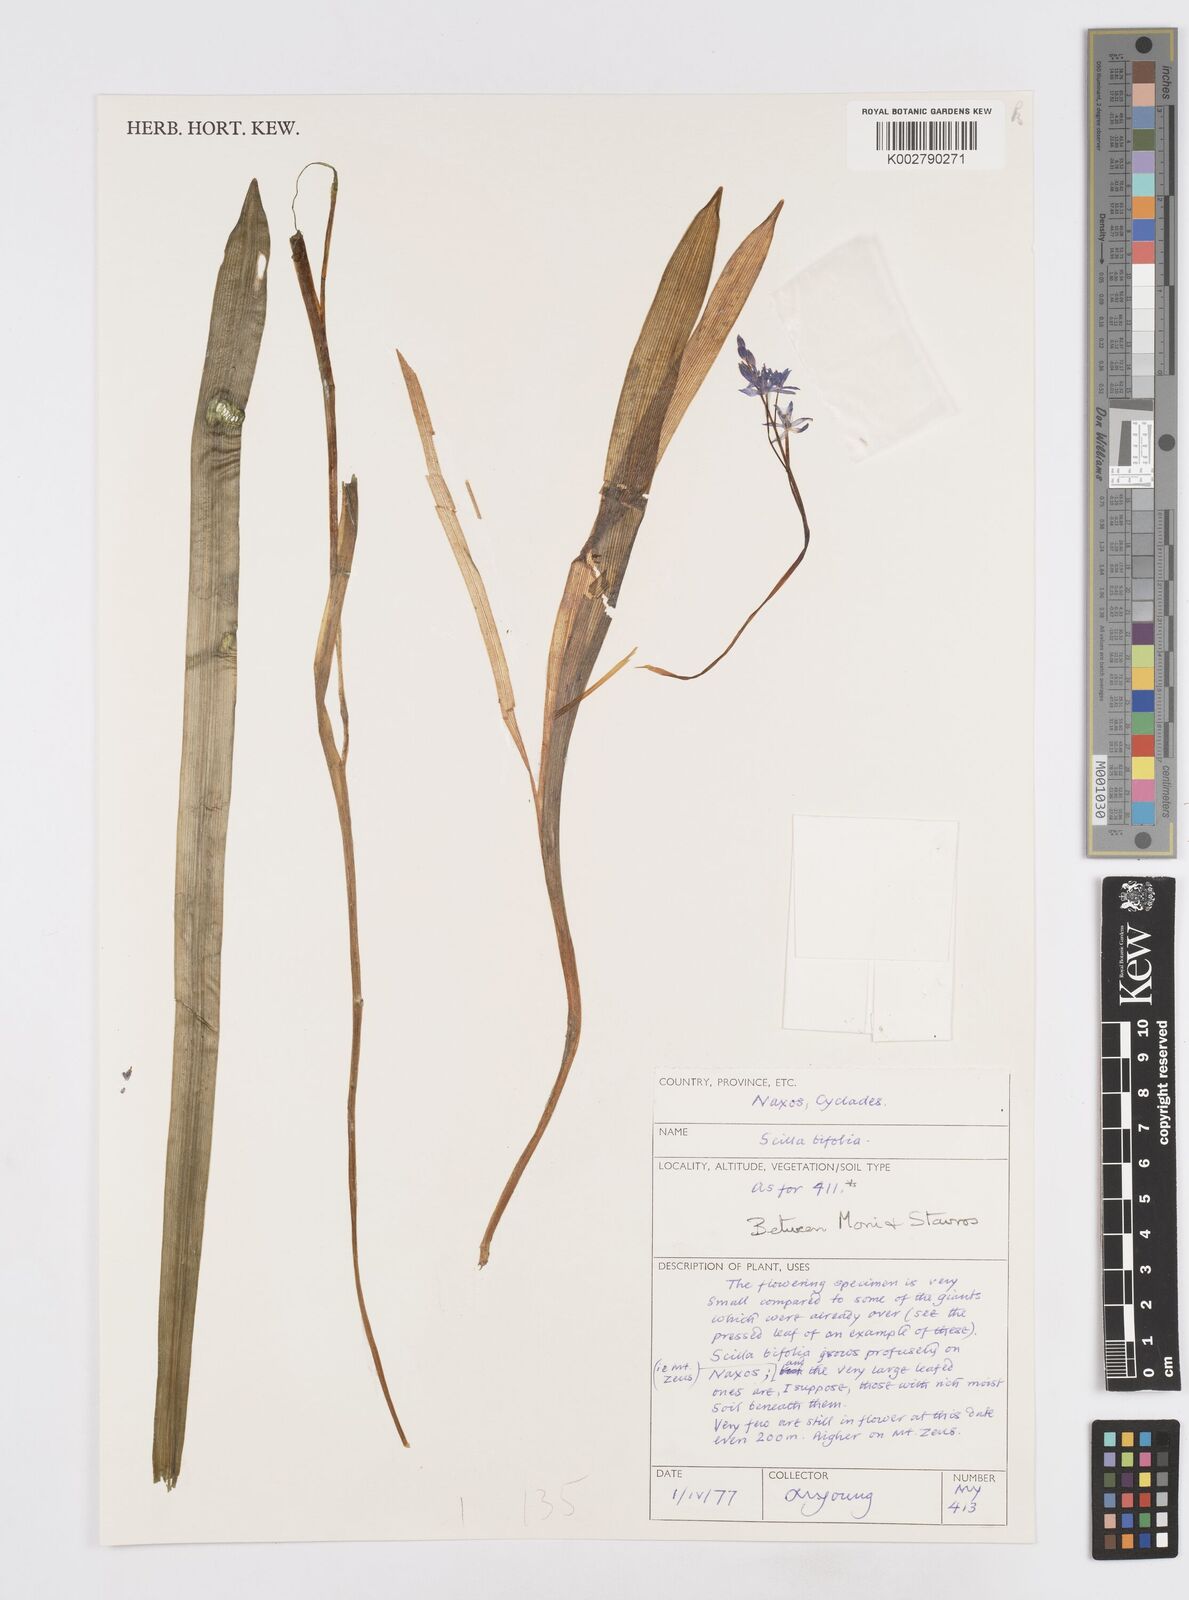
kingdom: Plantae
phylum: Tracheophyta
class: Liliopsida
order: Asparagales
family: Asparagaceae
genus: Scilla
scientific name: Scilla bifolia
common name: Alpine squill
